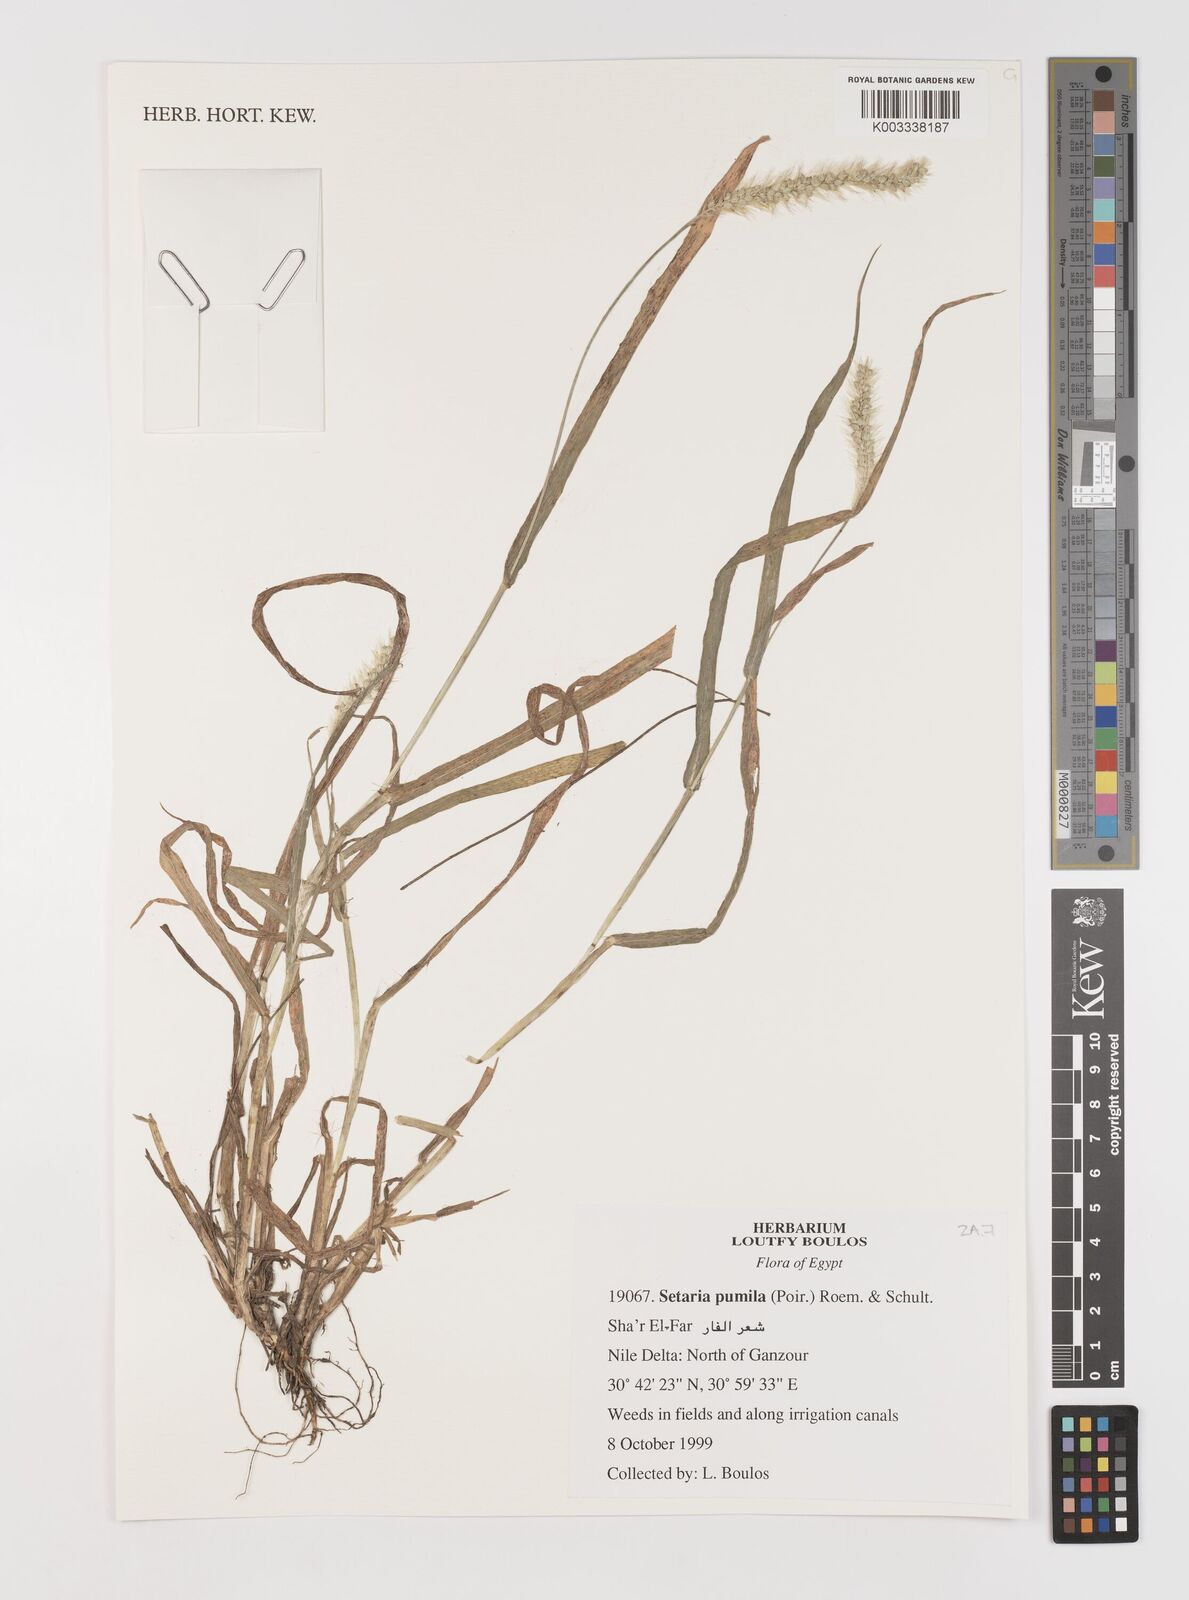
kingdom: Plantae
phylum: Tracheophyta
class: Liliopsida
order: Poales
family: Poaceae
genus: Setaria
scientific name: Setaria pumila
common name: Yellow bristle-grass
